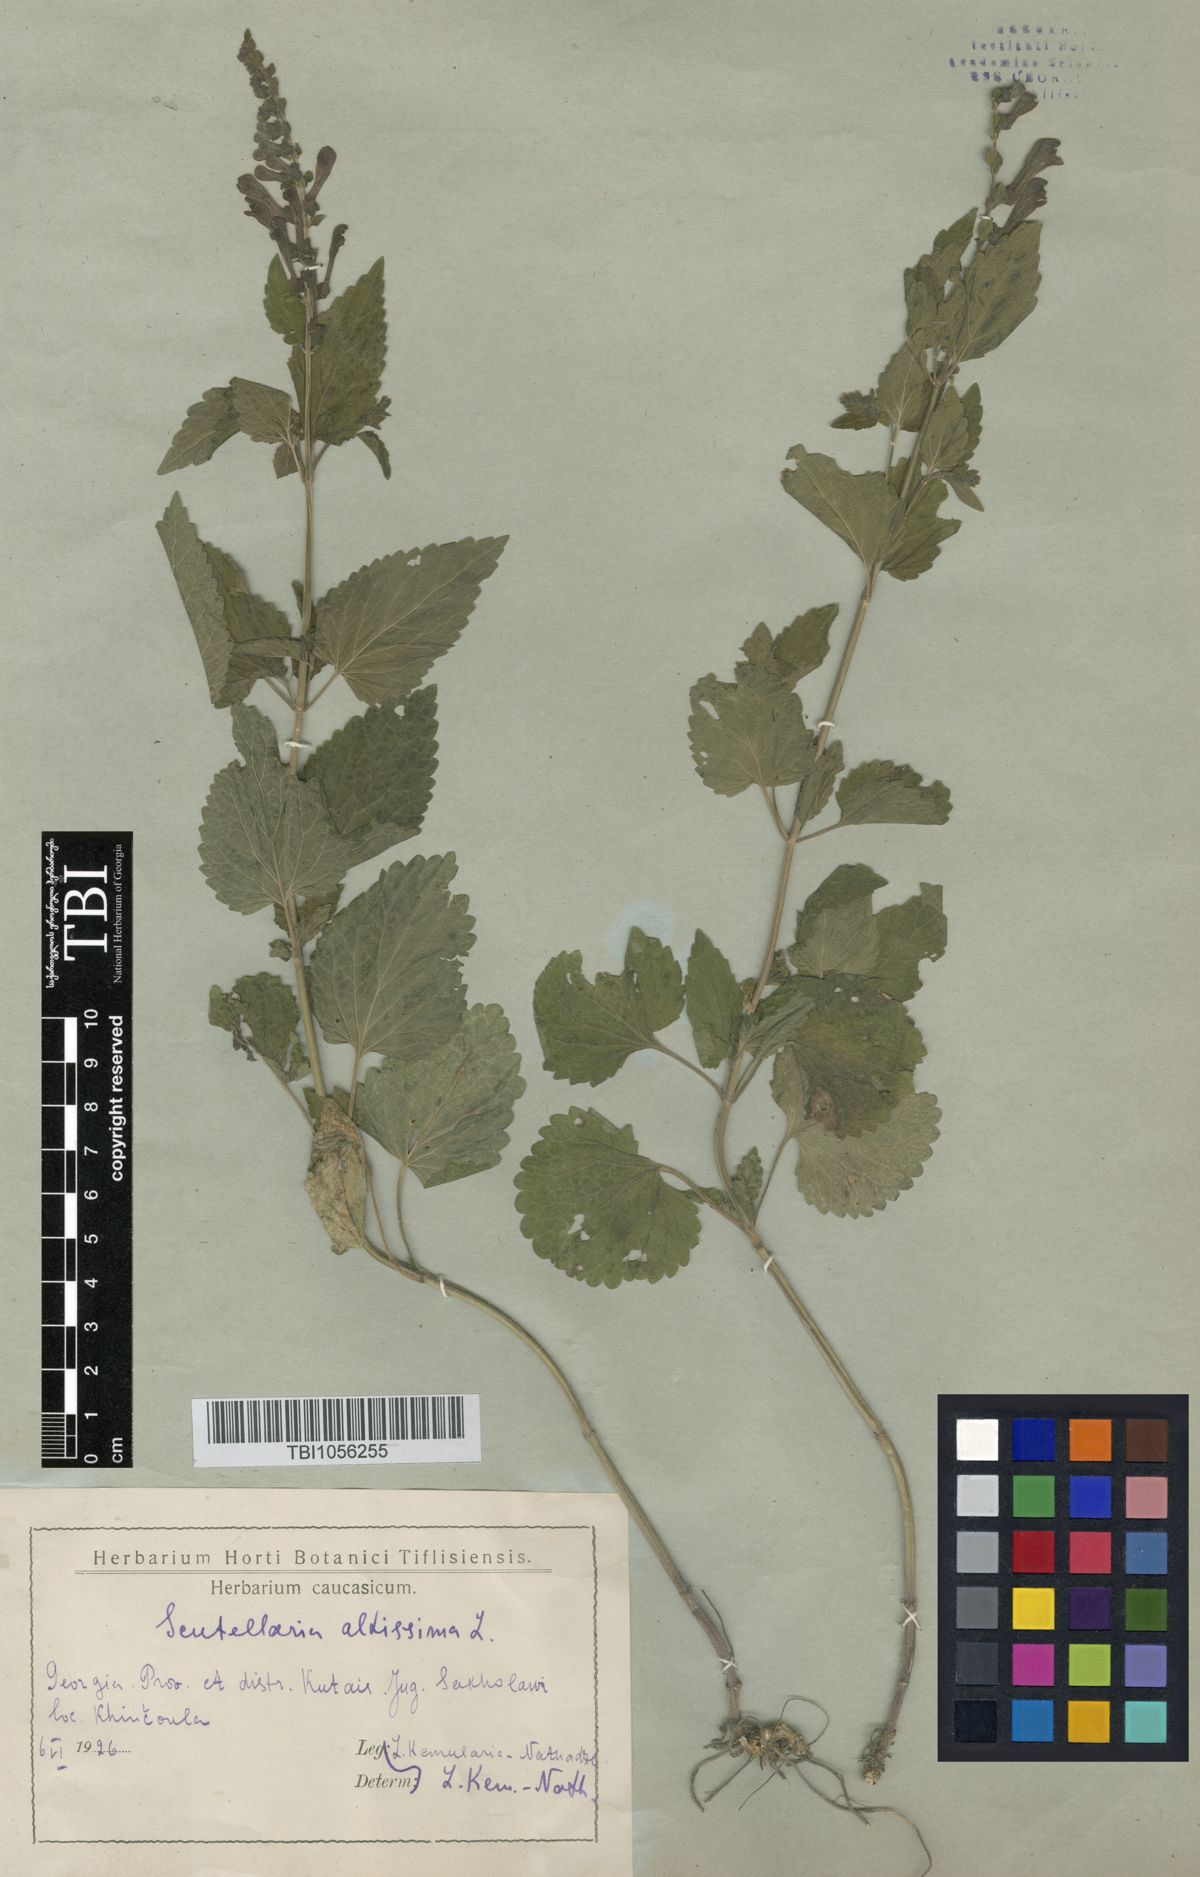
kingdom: Plantae
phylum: Tracheophyta
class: Magnoliopsida
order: Lamiales
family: Lamiaceae
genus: Scutellaria
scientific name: Scutellaria altissima
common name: Somerset skullcap
